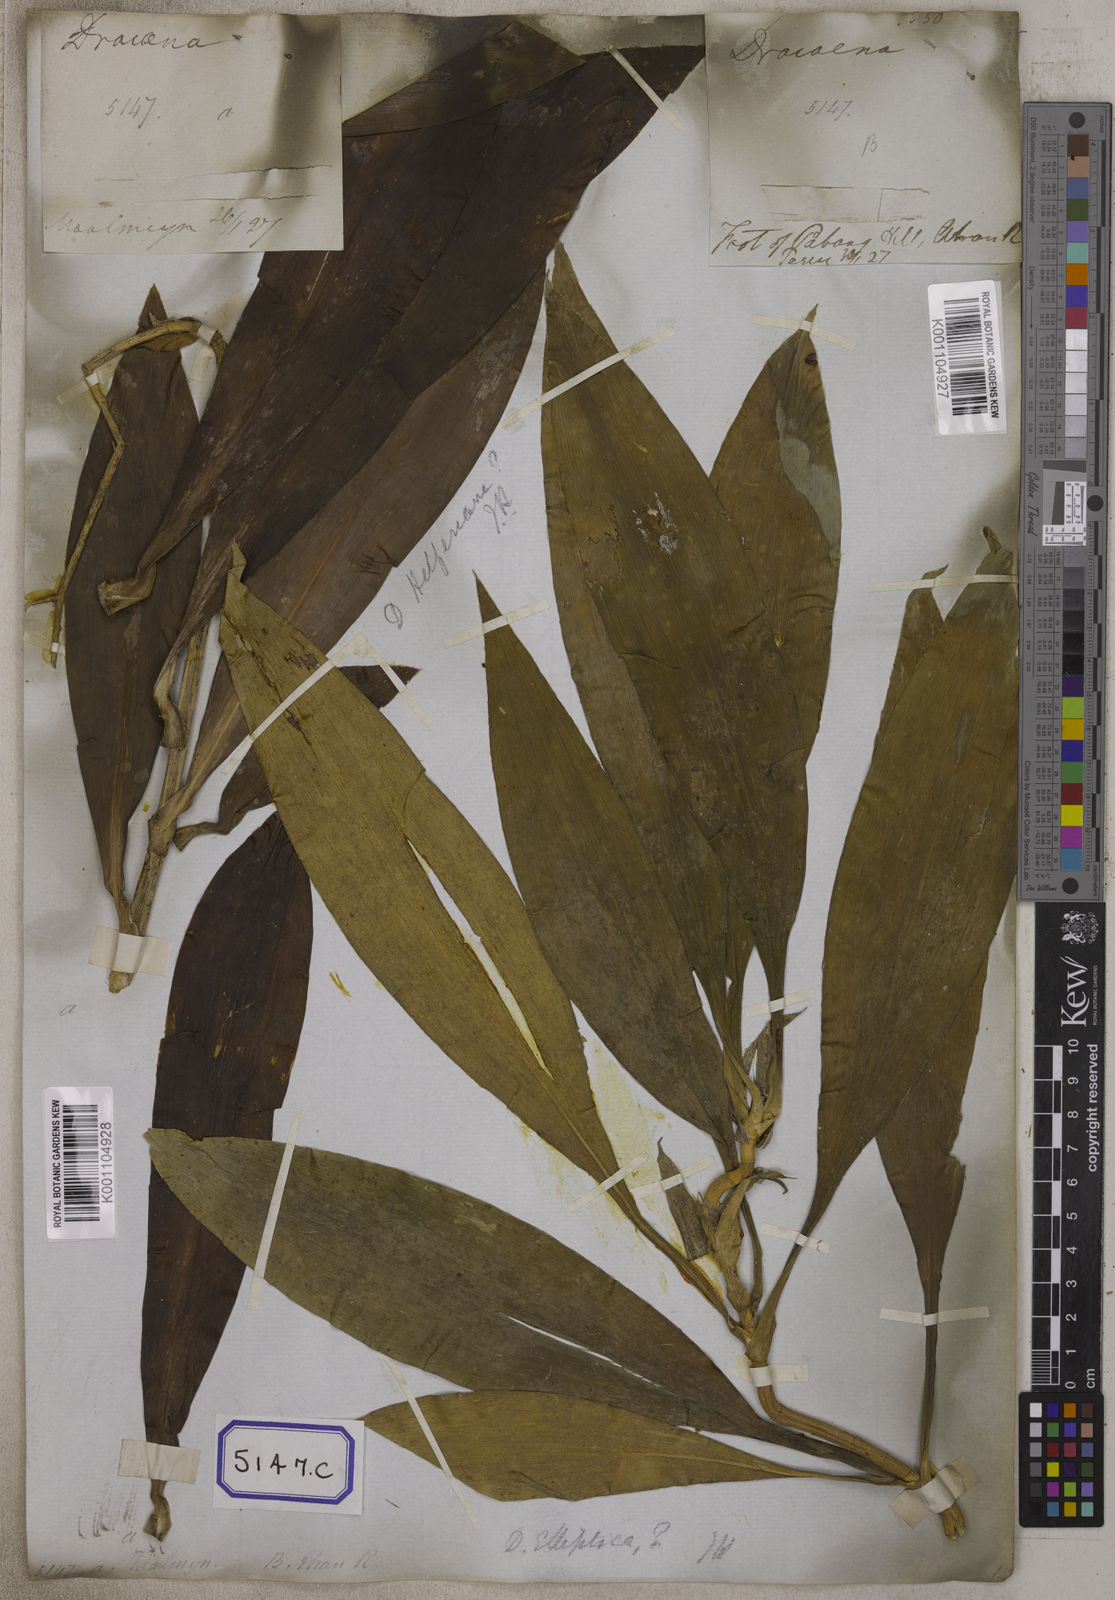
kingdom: Plantae
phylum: Tracheophyta
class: Liliopsida
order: Asparagales
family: Asparagaceae
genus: Dracaena
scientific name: Dracaena elliptica
